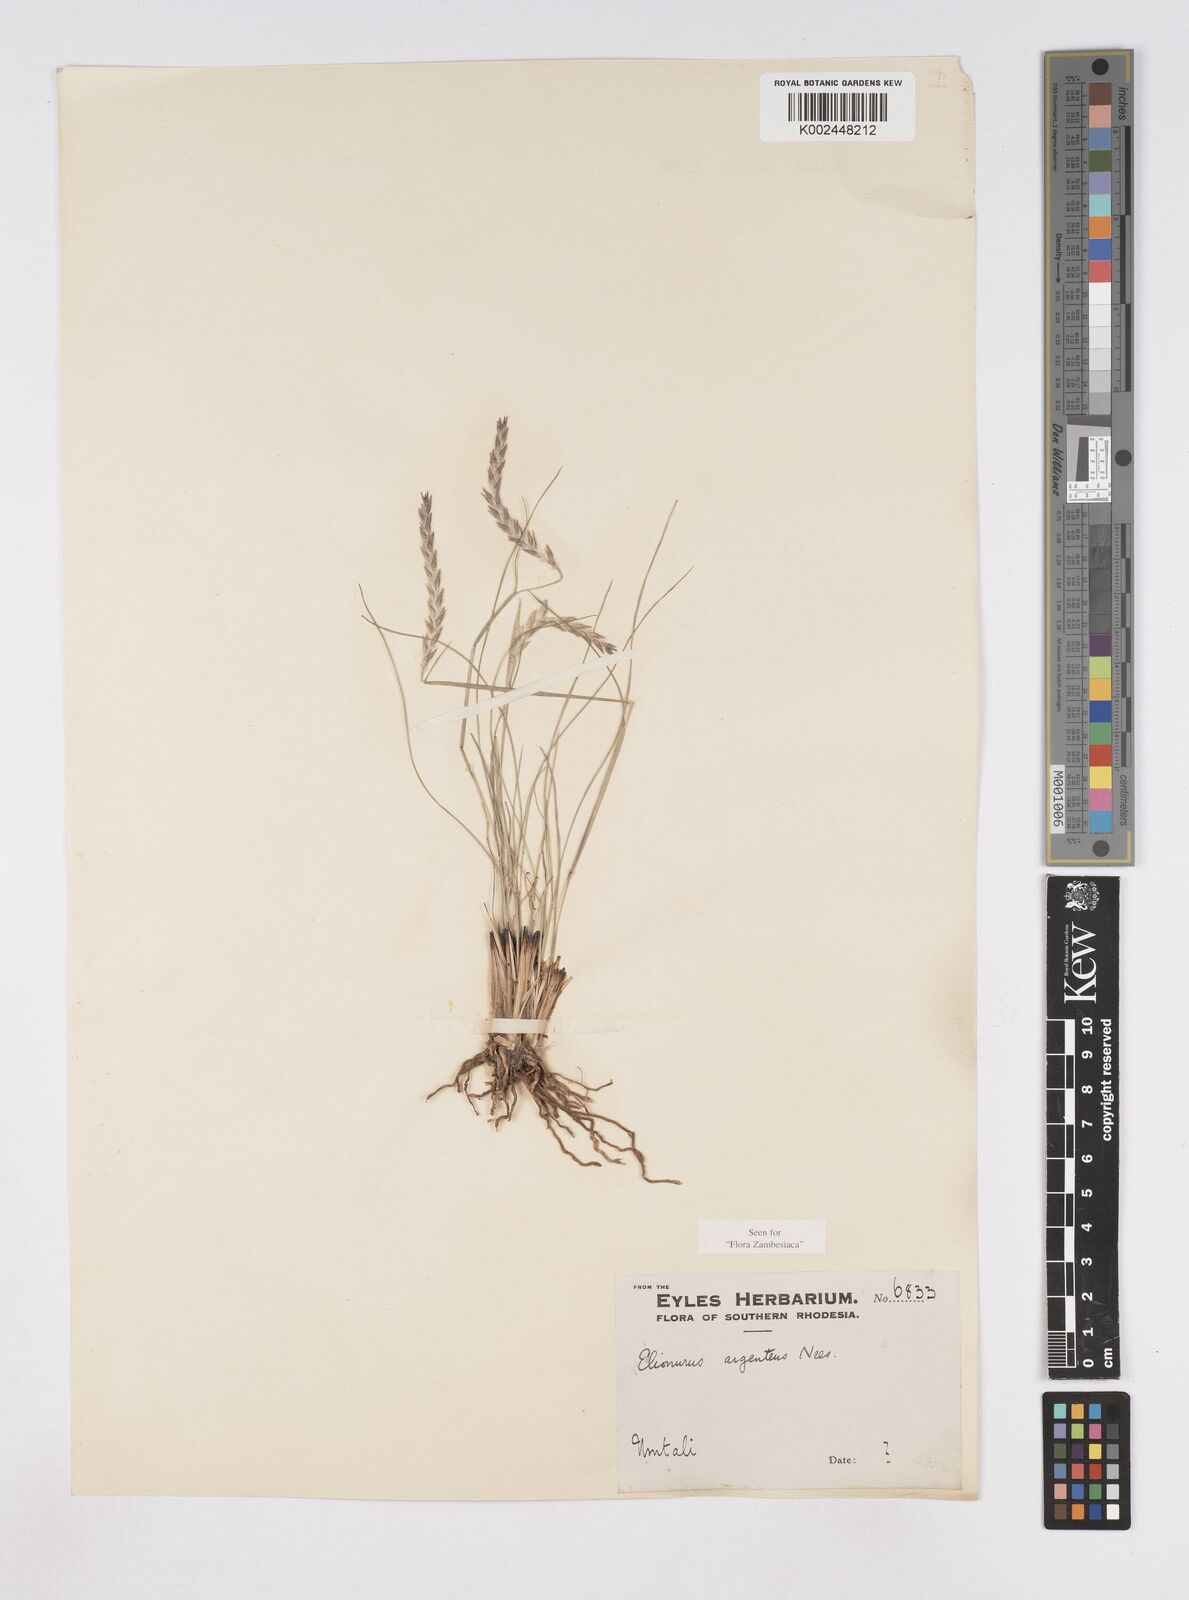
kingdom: Plantae
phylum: Tracheophyta
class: Liliopsida
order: Poales
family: Poaceae
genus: Elionurus
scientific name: Elionurus muticus
